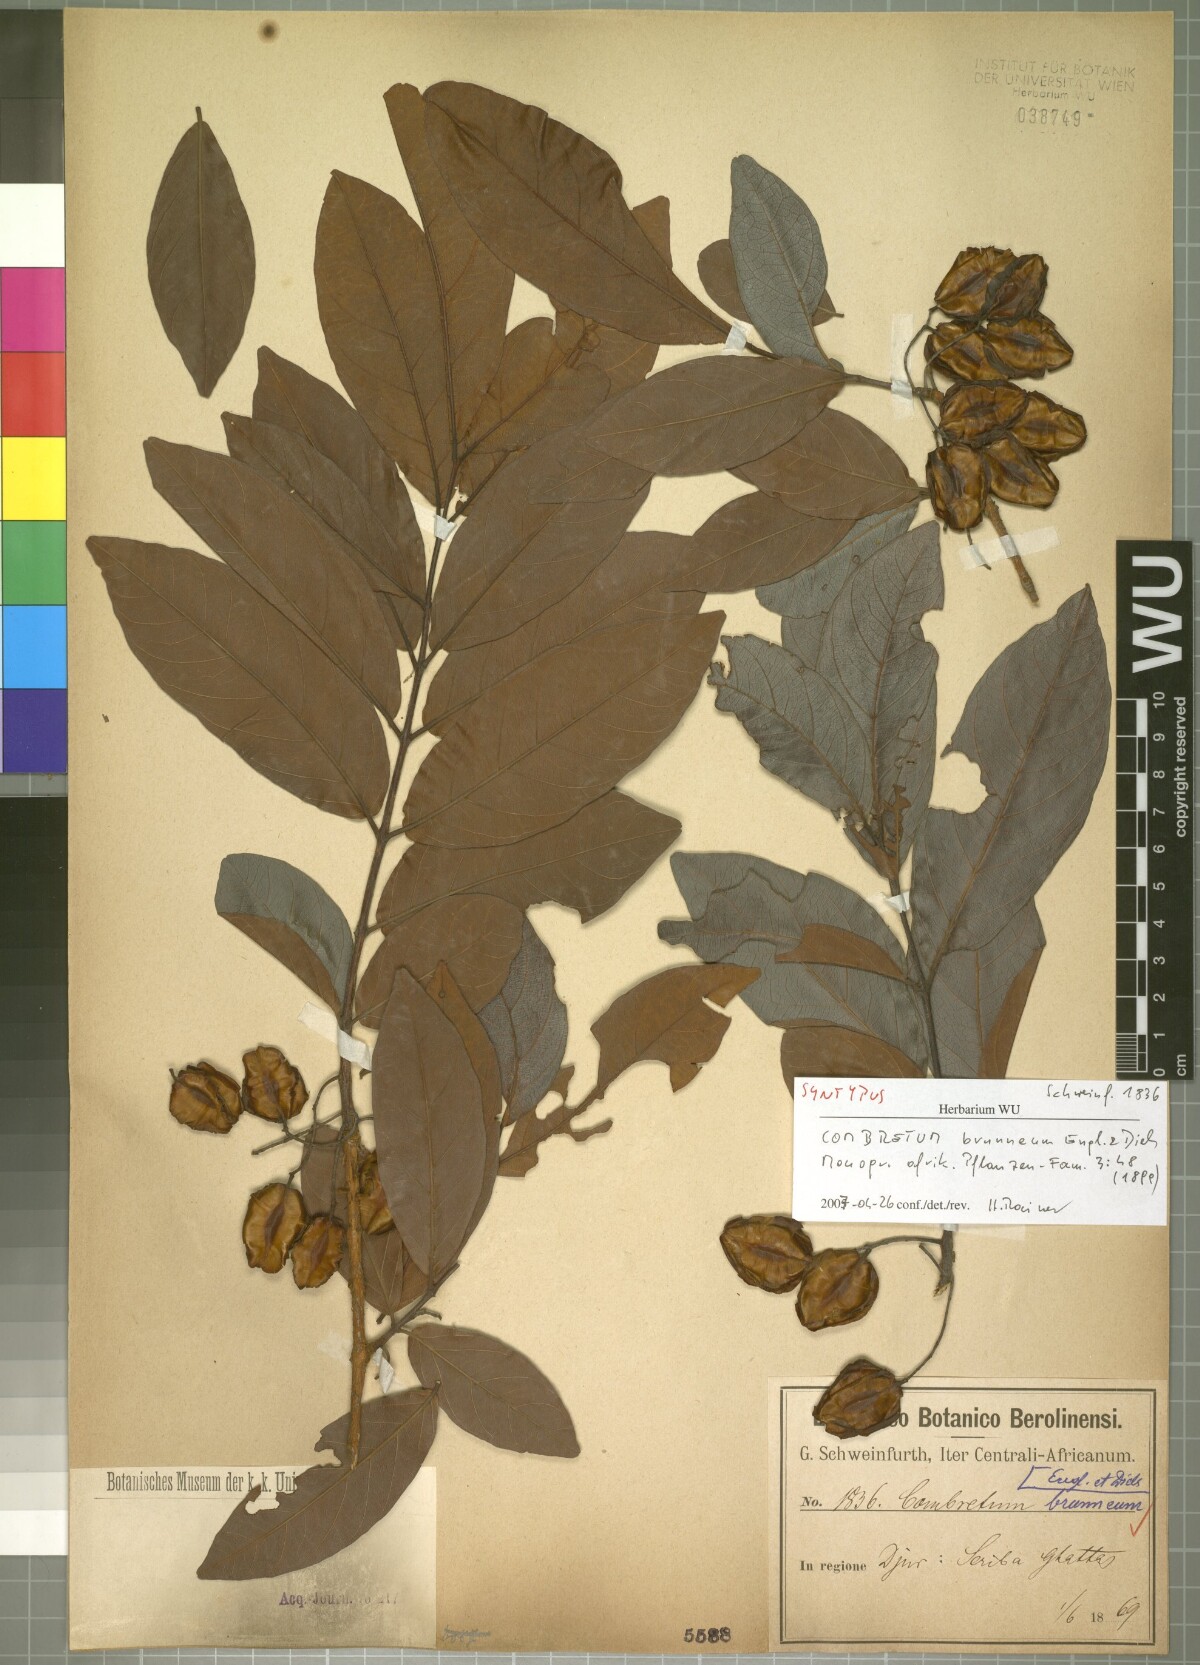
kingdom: Plantae
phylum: Tracheophyta
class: Magnoliopsida
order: Myrtales
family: Combretaceae
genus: Combretum
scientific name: Combretum brunneum
